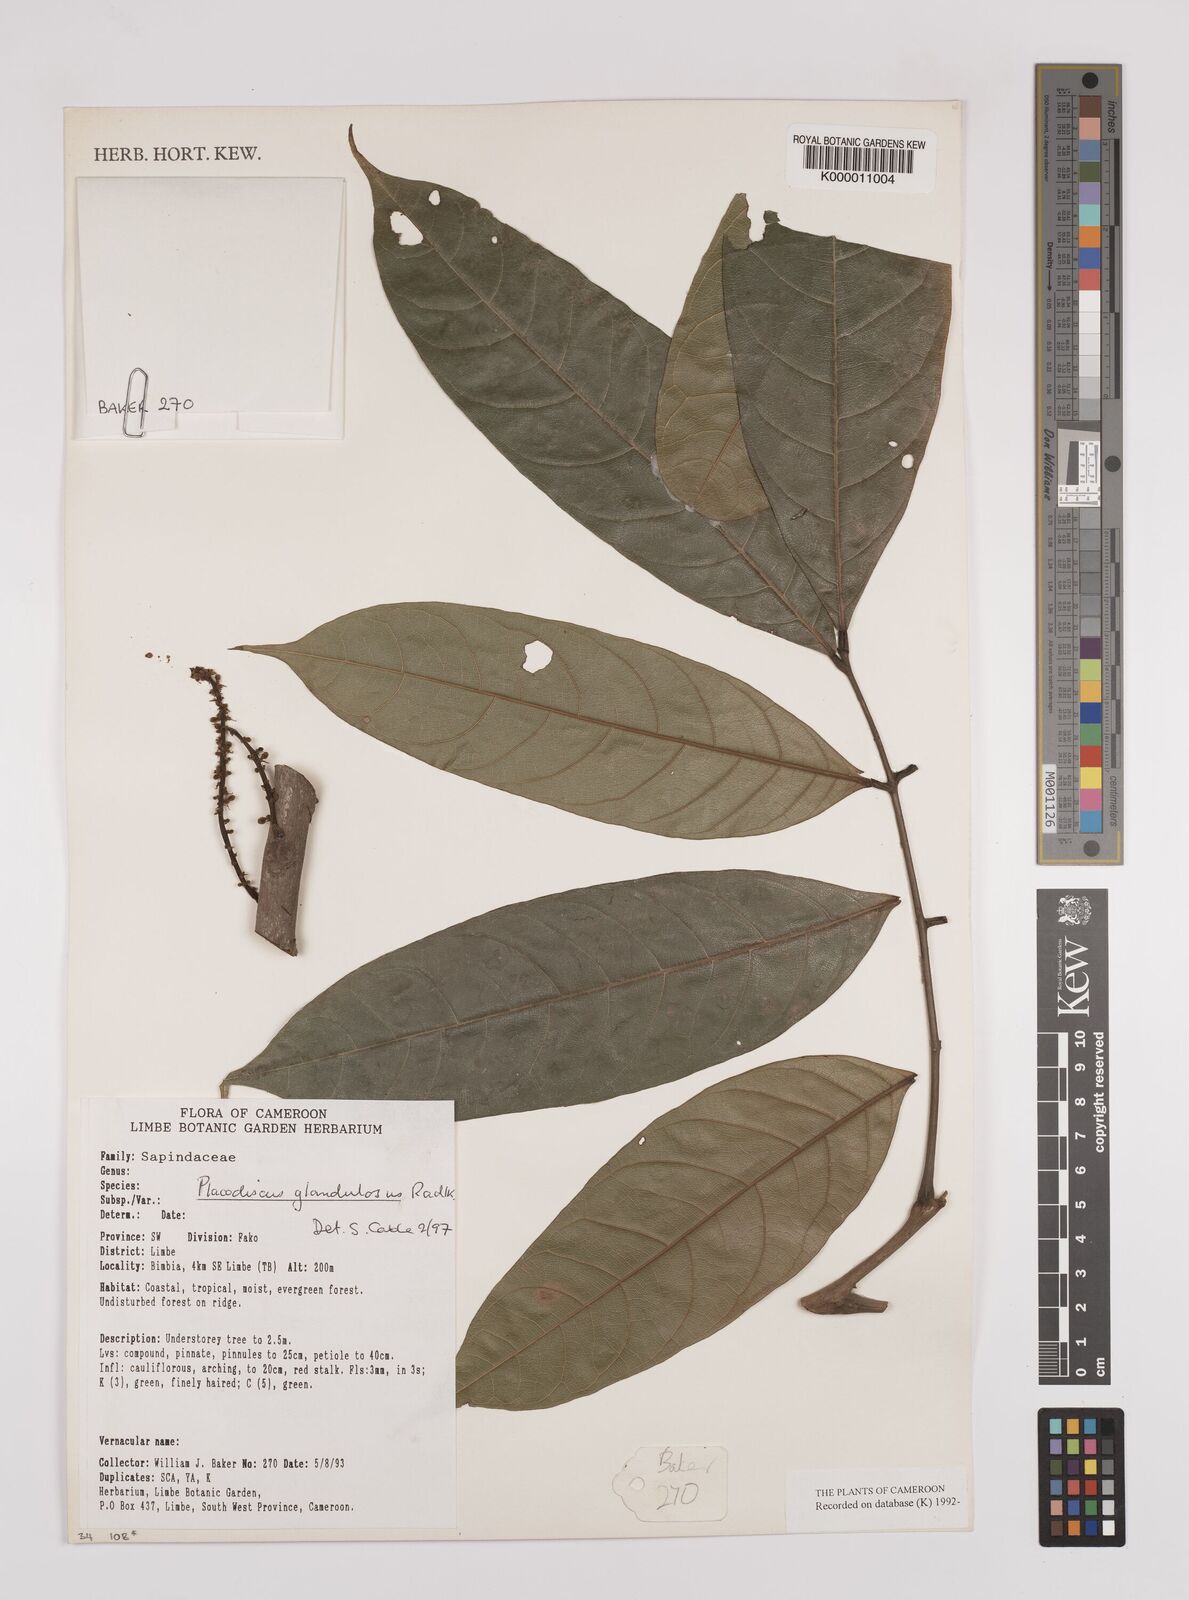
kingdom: Plantae
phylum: Tracheophyta
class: Magnoliopsida
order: Sapindales
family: Sapindaceae
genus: Placodiscus
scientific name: Placodiscus glandulosus
